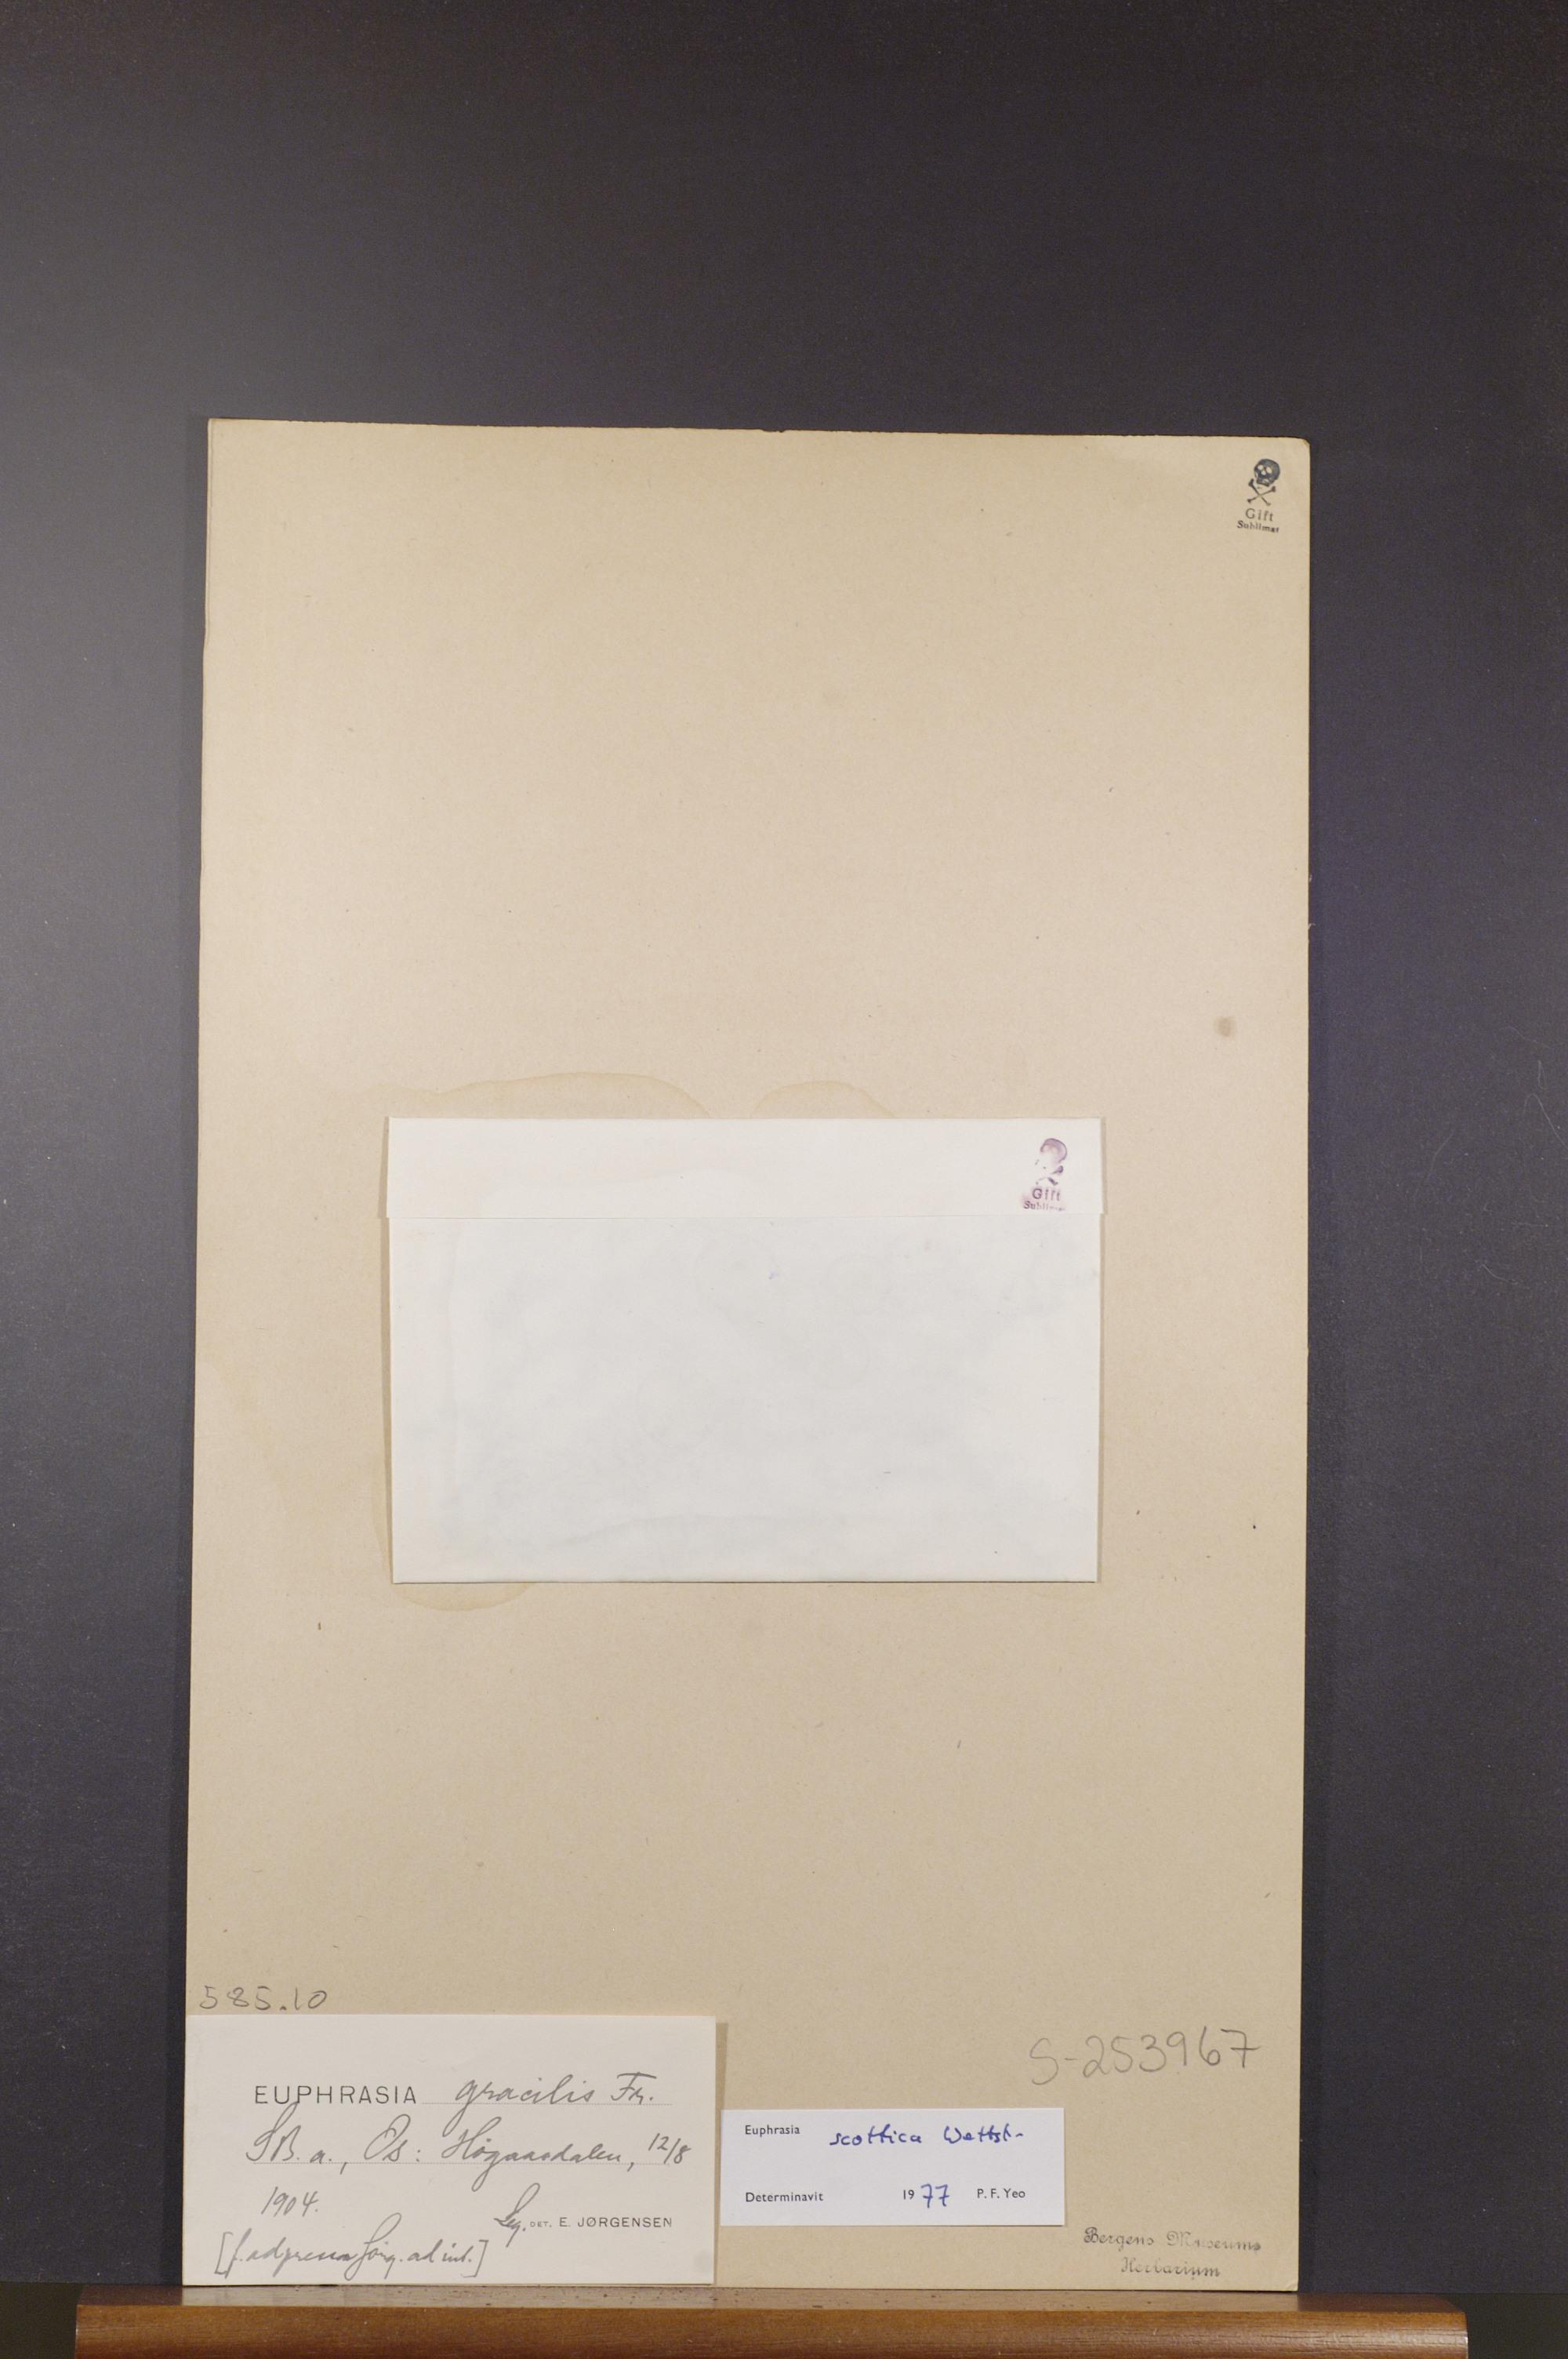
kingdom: Plantae
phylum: Tracheophyta
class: Magnoliopsida
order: Lamiales
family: Orobanchaceae
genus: Euphrasia
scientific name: Euphrasia scottica
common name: Slender scottish eyebright
